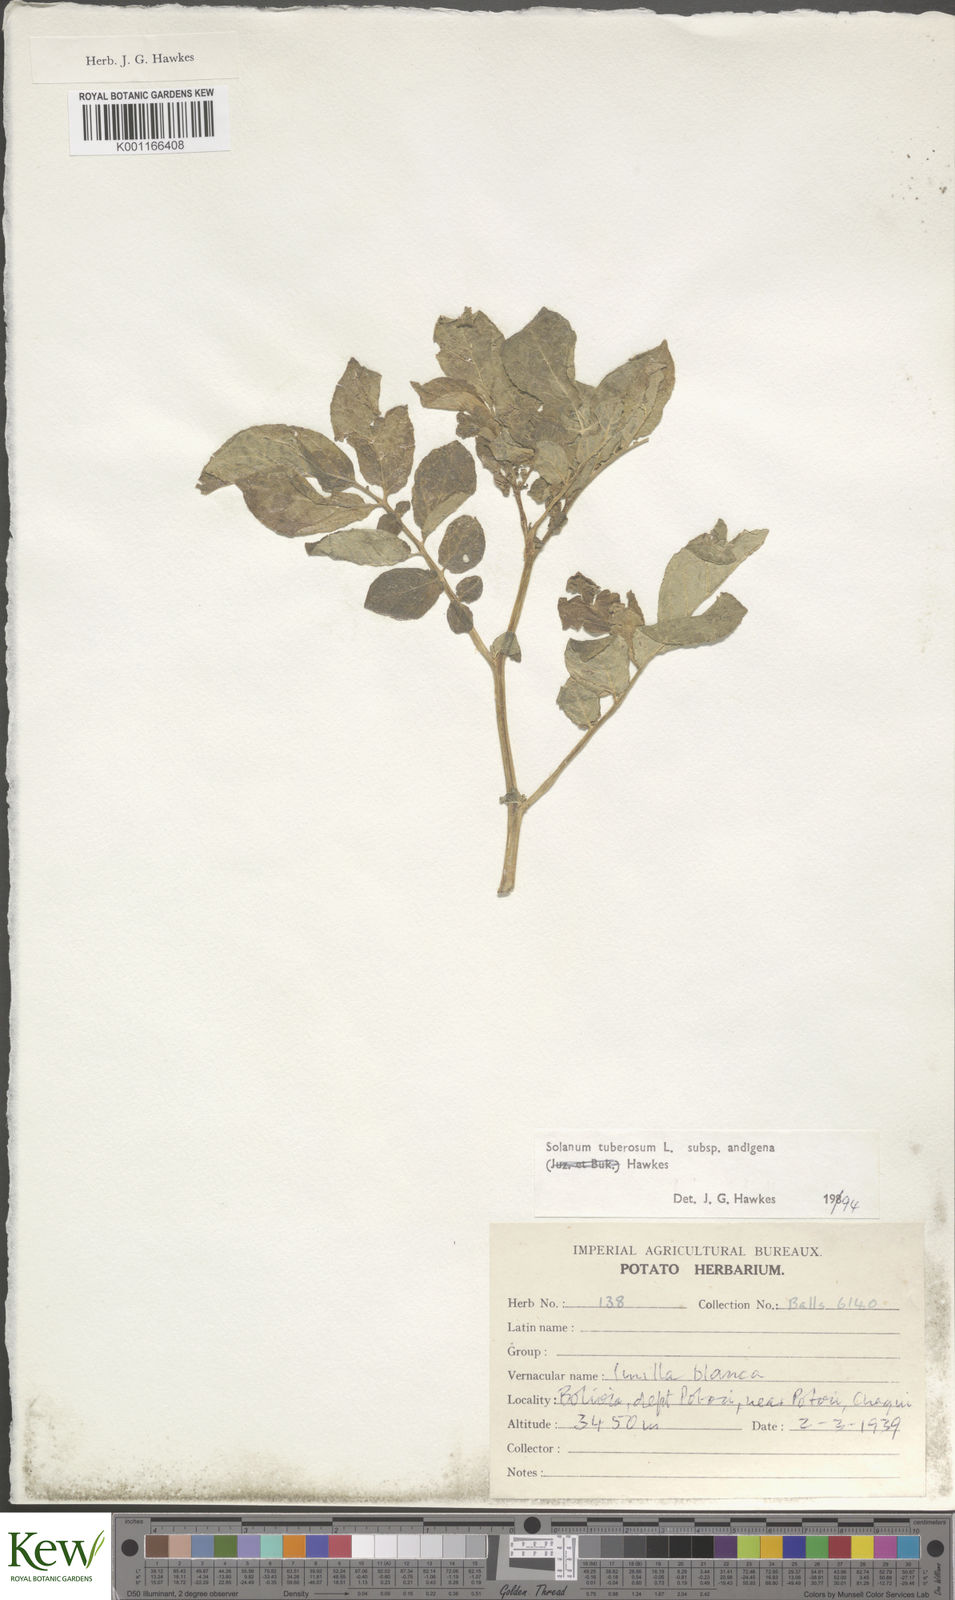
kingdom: Plantae
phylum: Tracheophyta
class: Magnoliopsida
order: Solanales
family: Solanaceae
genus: Solanum
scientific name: Solanum tuberosum
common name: Potato
